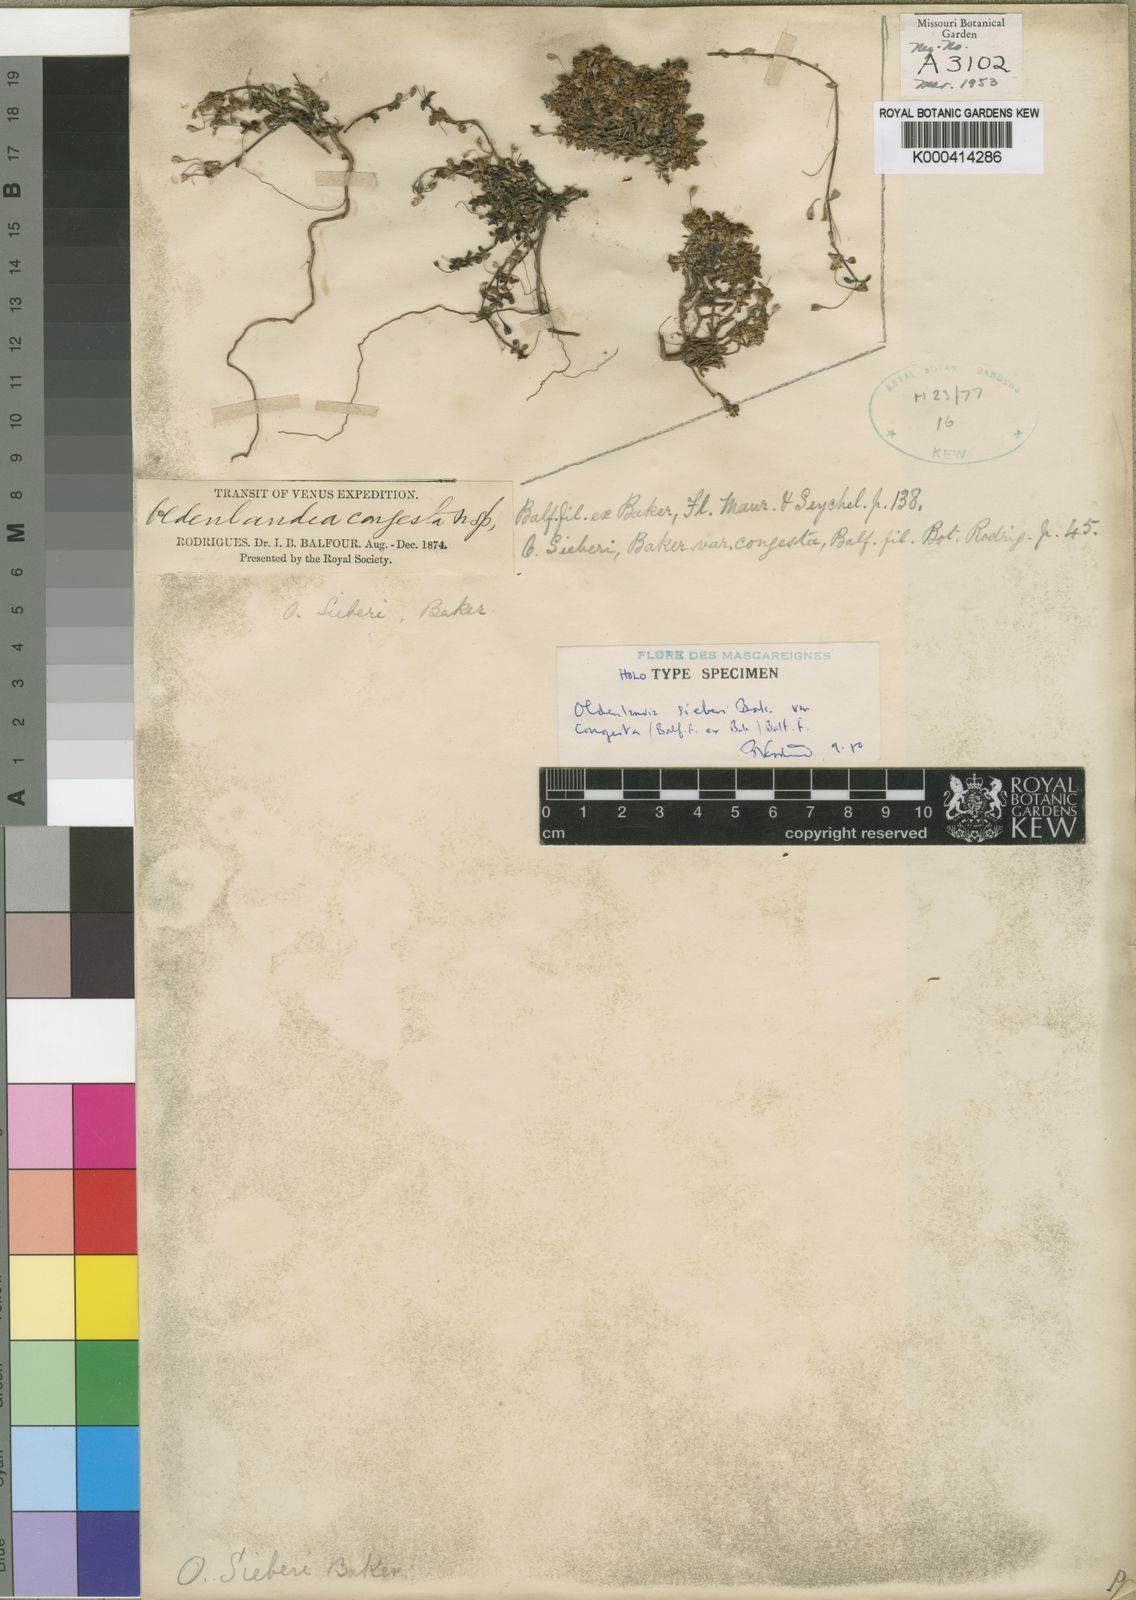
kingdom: Plantae
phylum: Tracheophyta
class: Magnoliopsida
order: Gentianales
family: Rubiaceae
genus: Oldenlandia
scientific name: Oldenlandia sieberi
